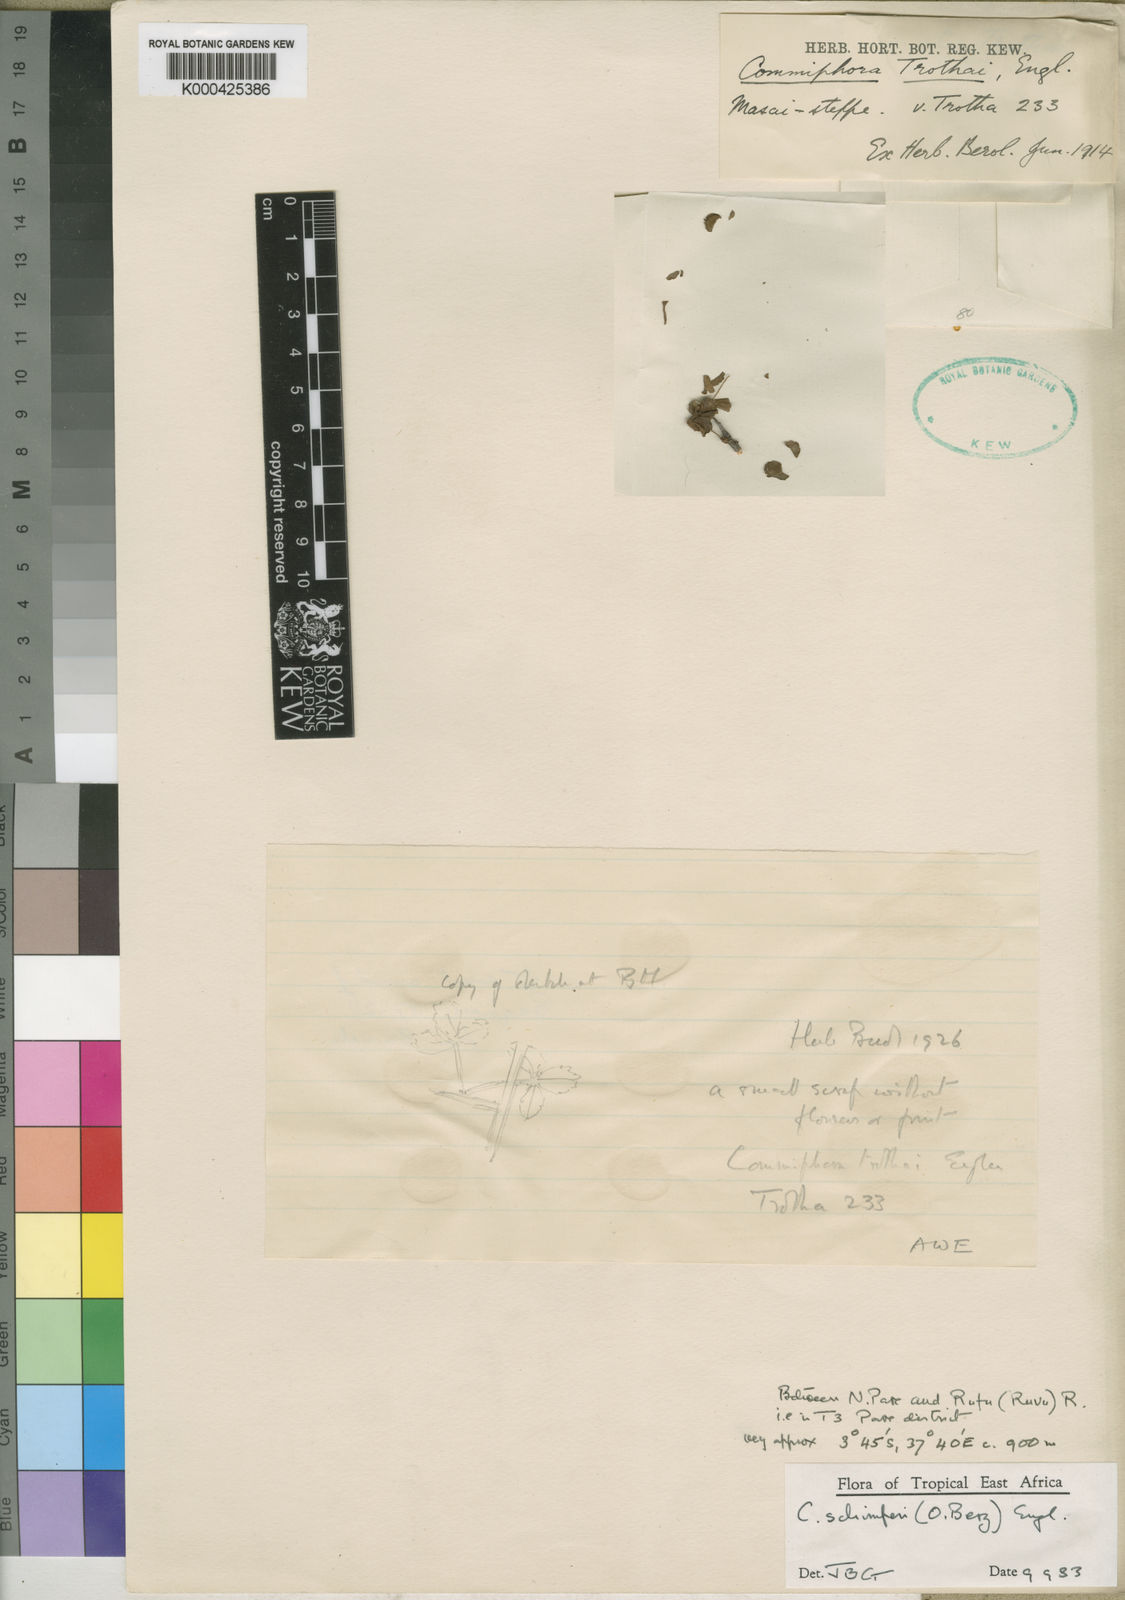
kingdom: Plantae
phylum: Tracheophyta
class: Magnoliopsida
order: Sapindales
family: Burseraceae
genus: Commiphora
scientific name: Commiphora schimperi
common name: Glossy-leaved corkwood
